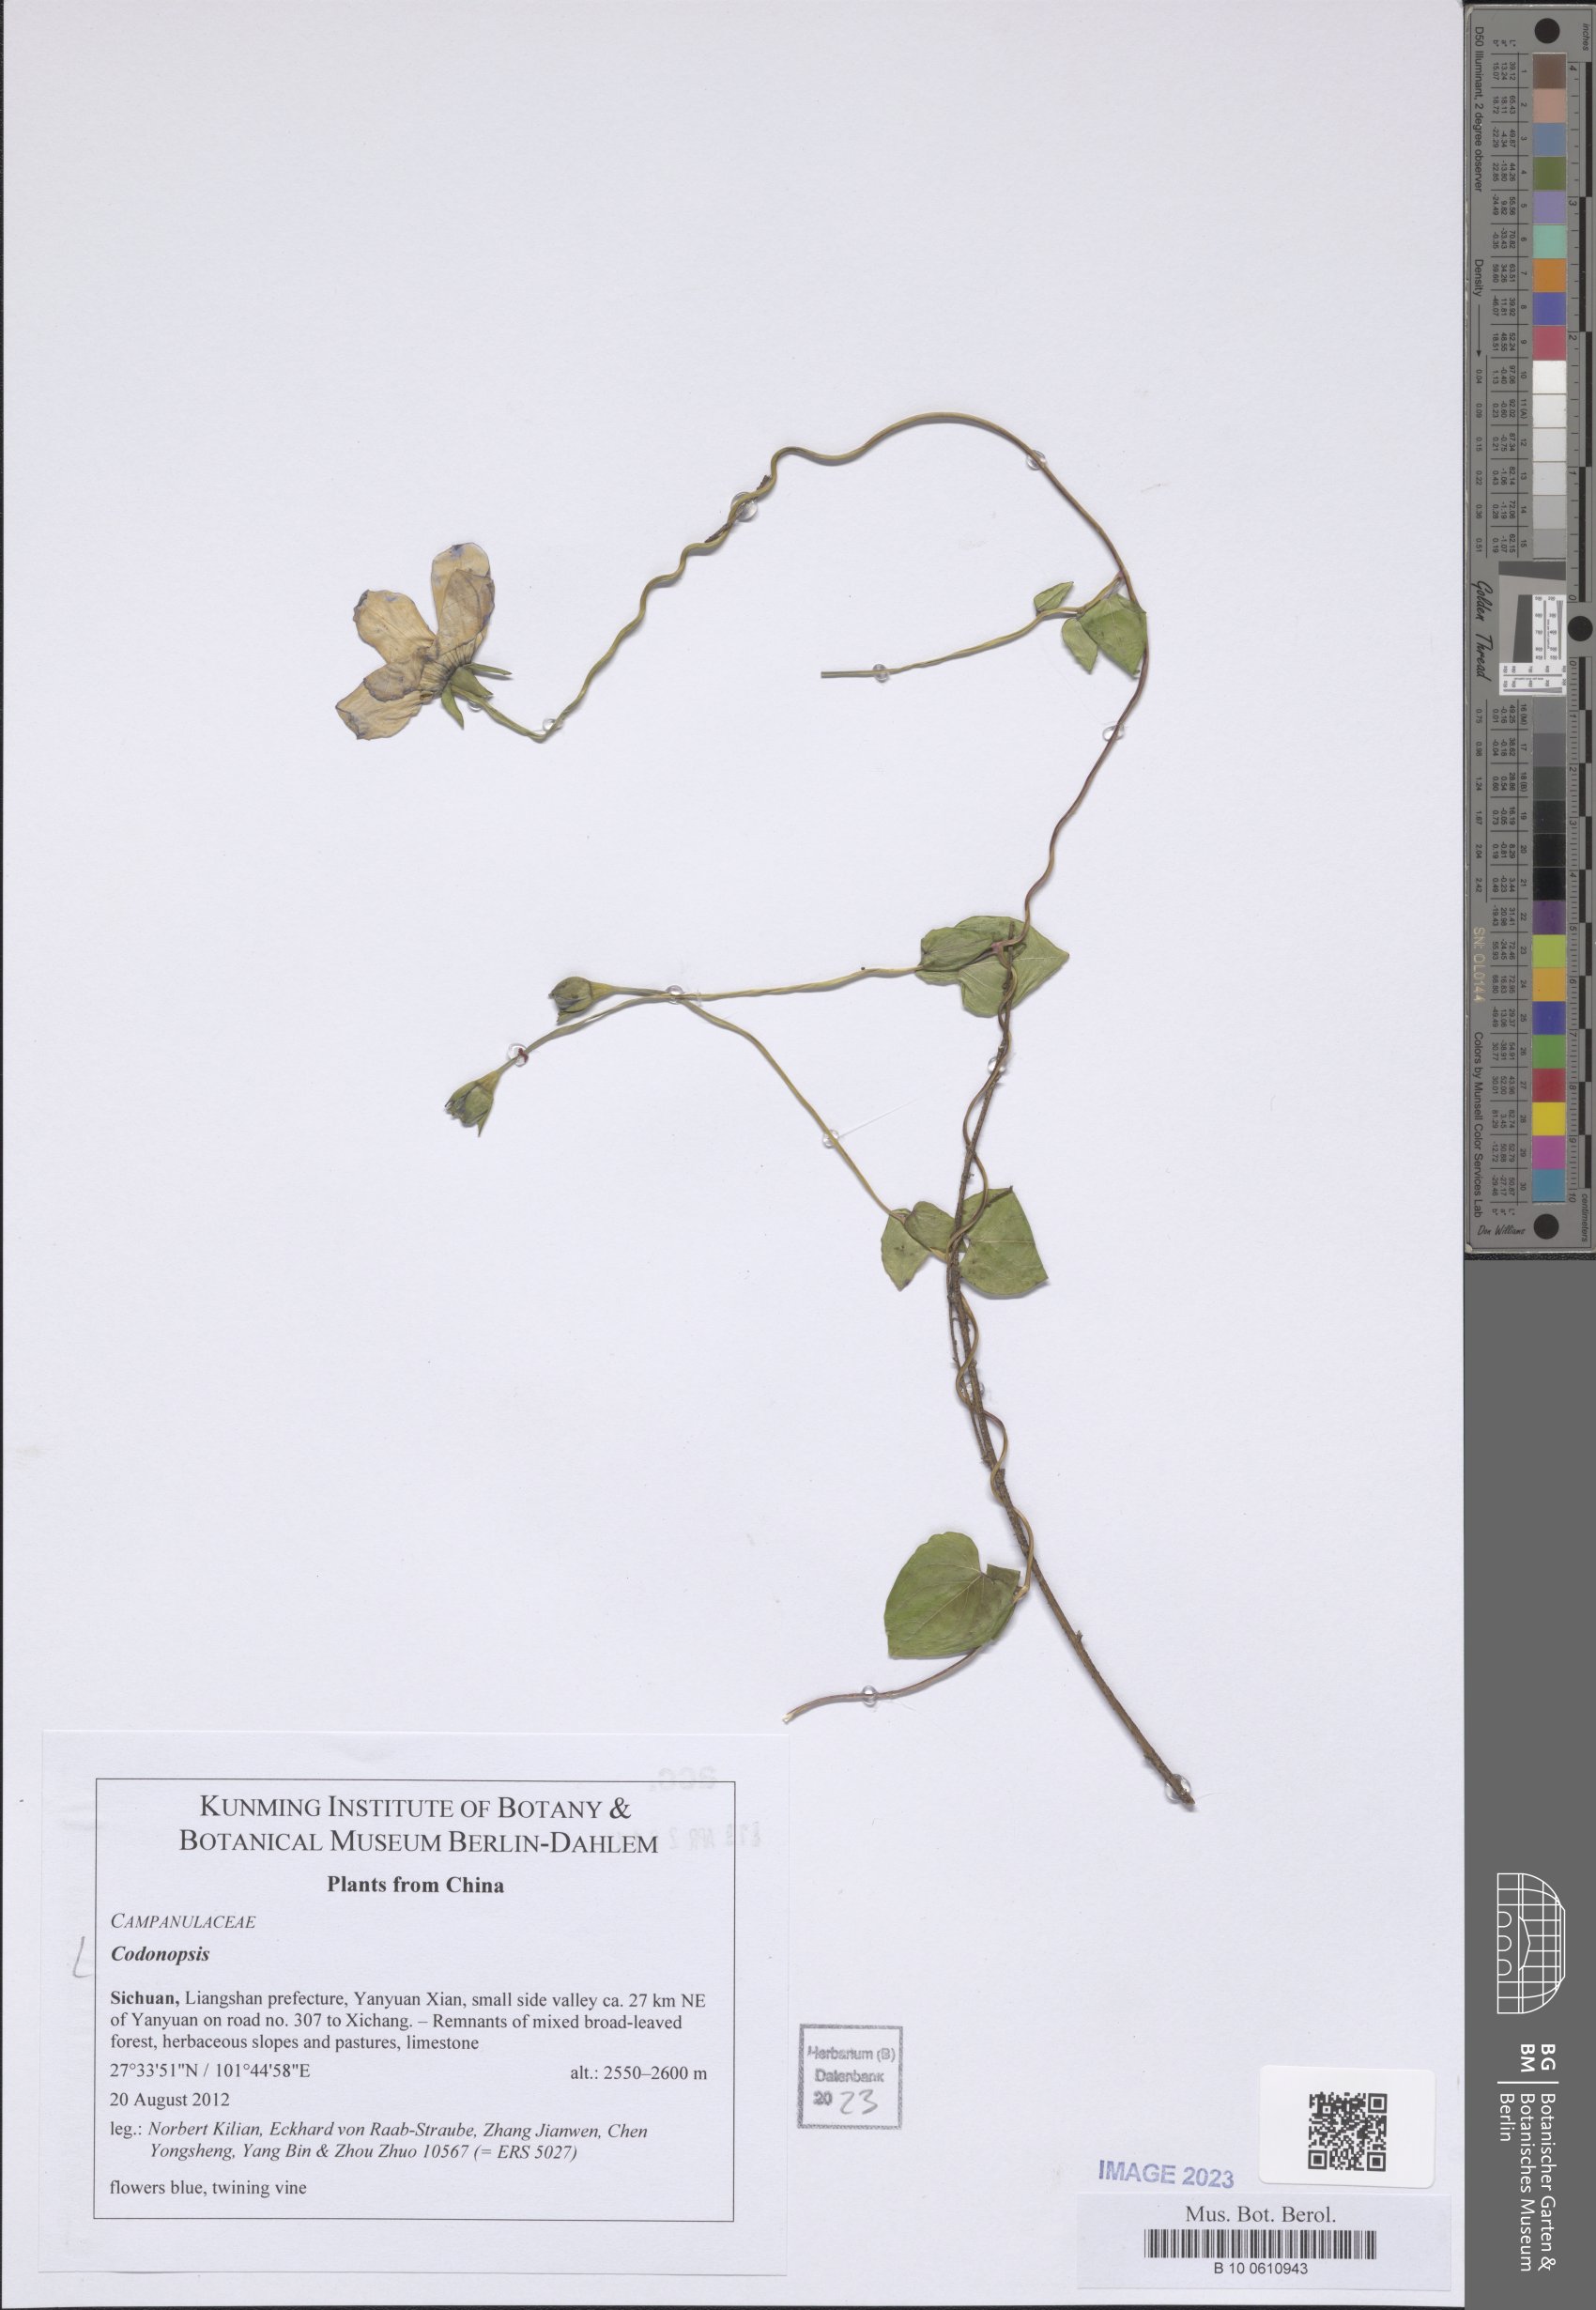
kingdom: Plantae
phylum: Tracheophyta
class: Magnoliopsida
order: Asterales
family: Campanulaceae
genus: Codonopsis
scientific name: Codonopsis
